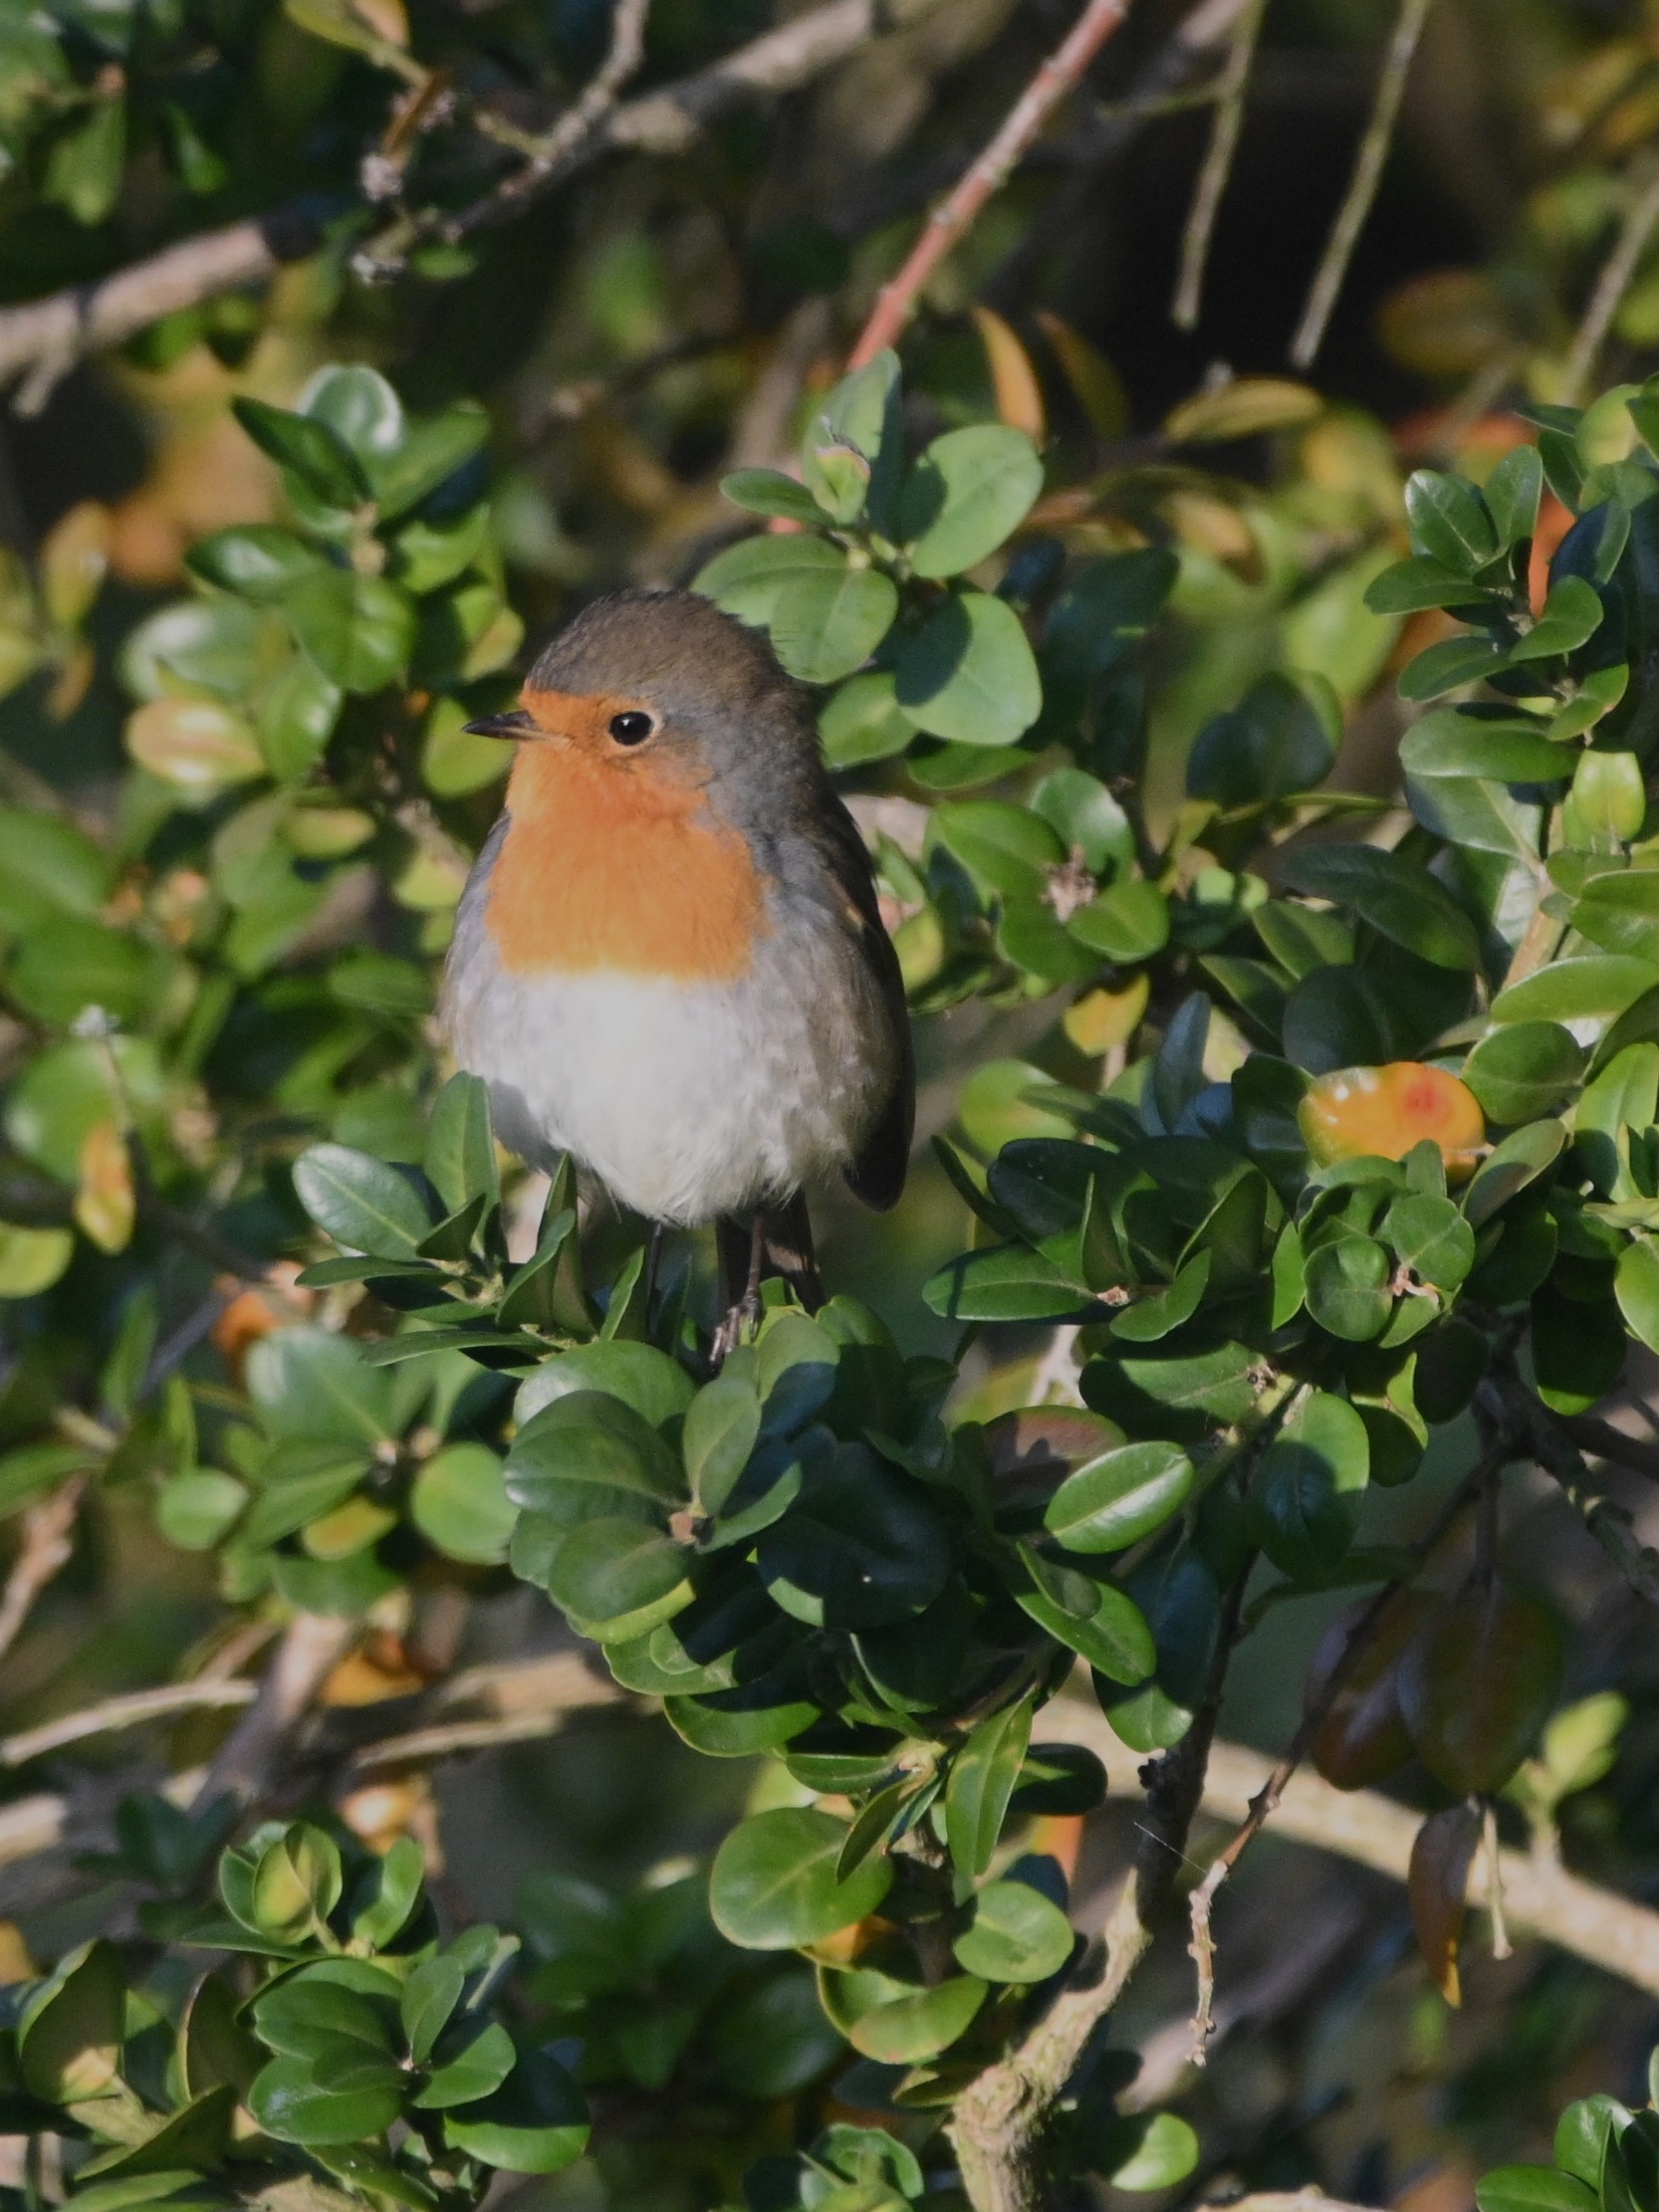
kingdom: Animalia
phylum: Chordata
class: Aves
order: Passeriformes
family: Muscicapidae
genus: Erithacus
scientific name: Erithacus rubecula
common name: Rødhals/rødkælk
